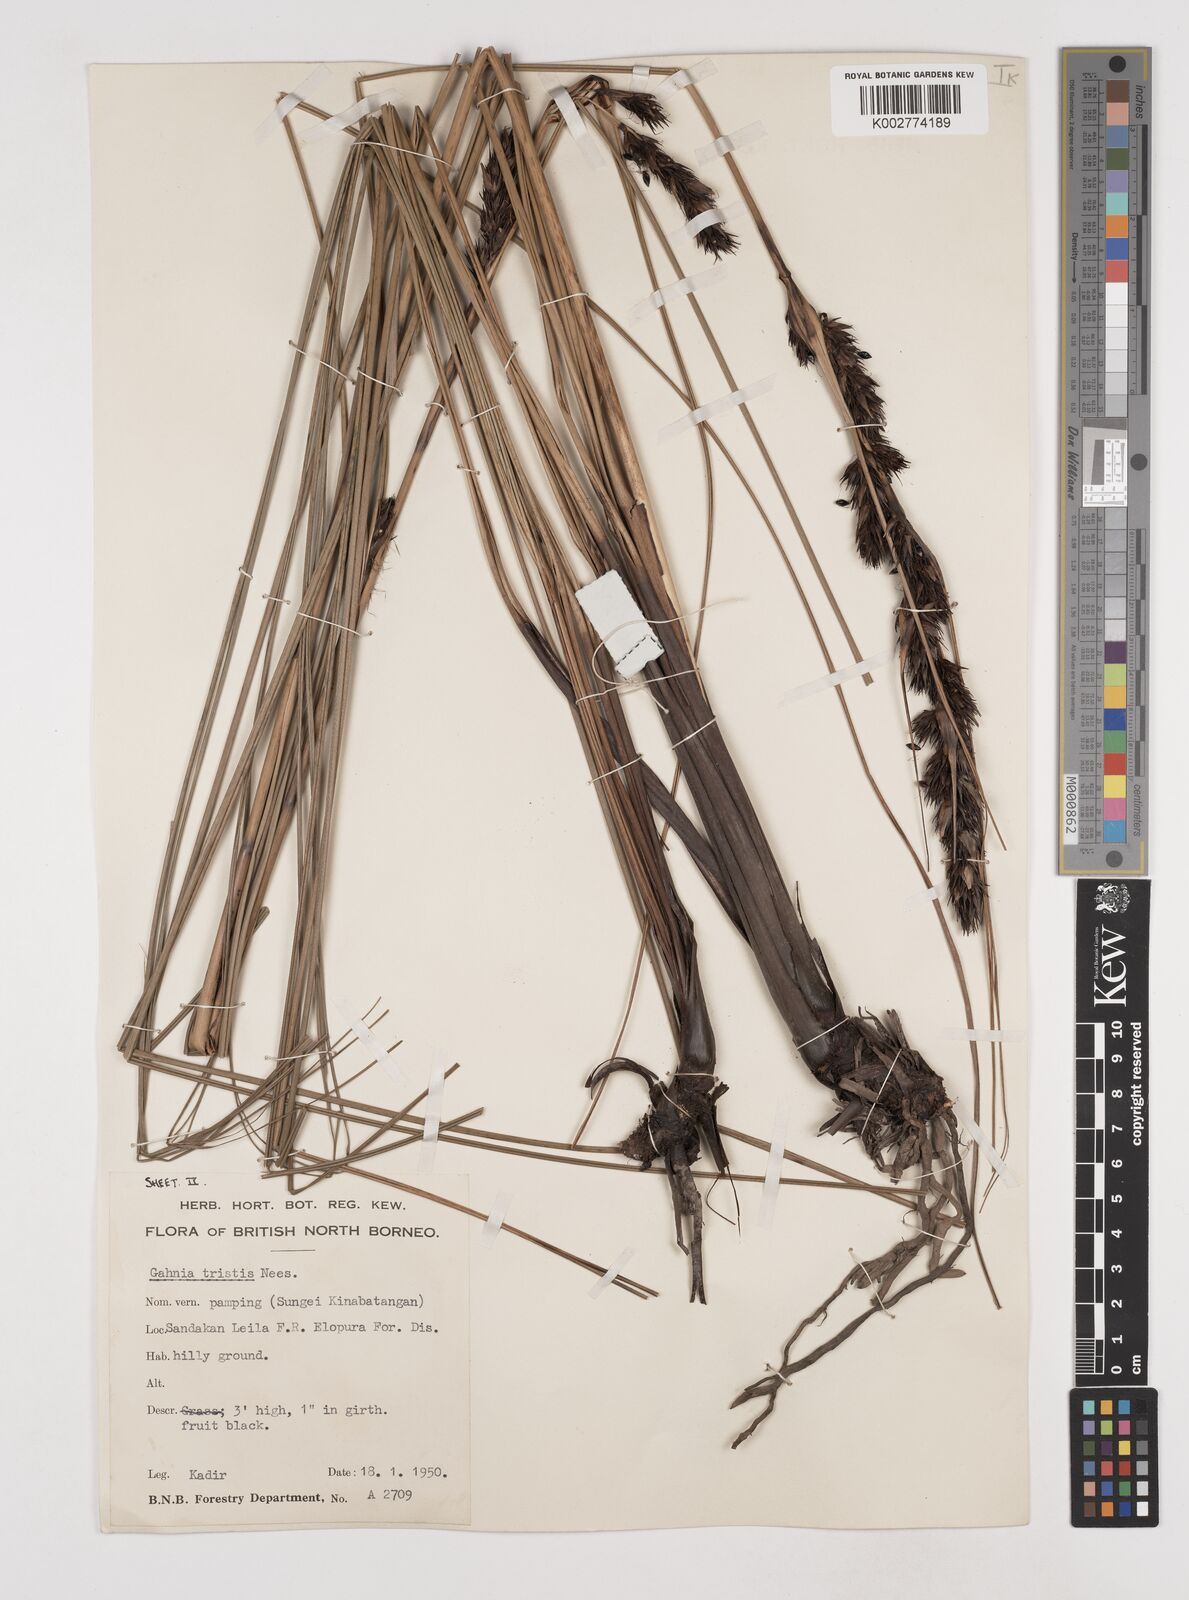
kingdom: Plantae
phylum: Tracheophyta
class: Liliopsida
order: Poales
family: Cyperaceae
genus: Gahnia
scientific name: Gahnia tristis
